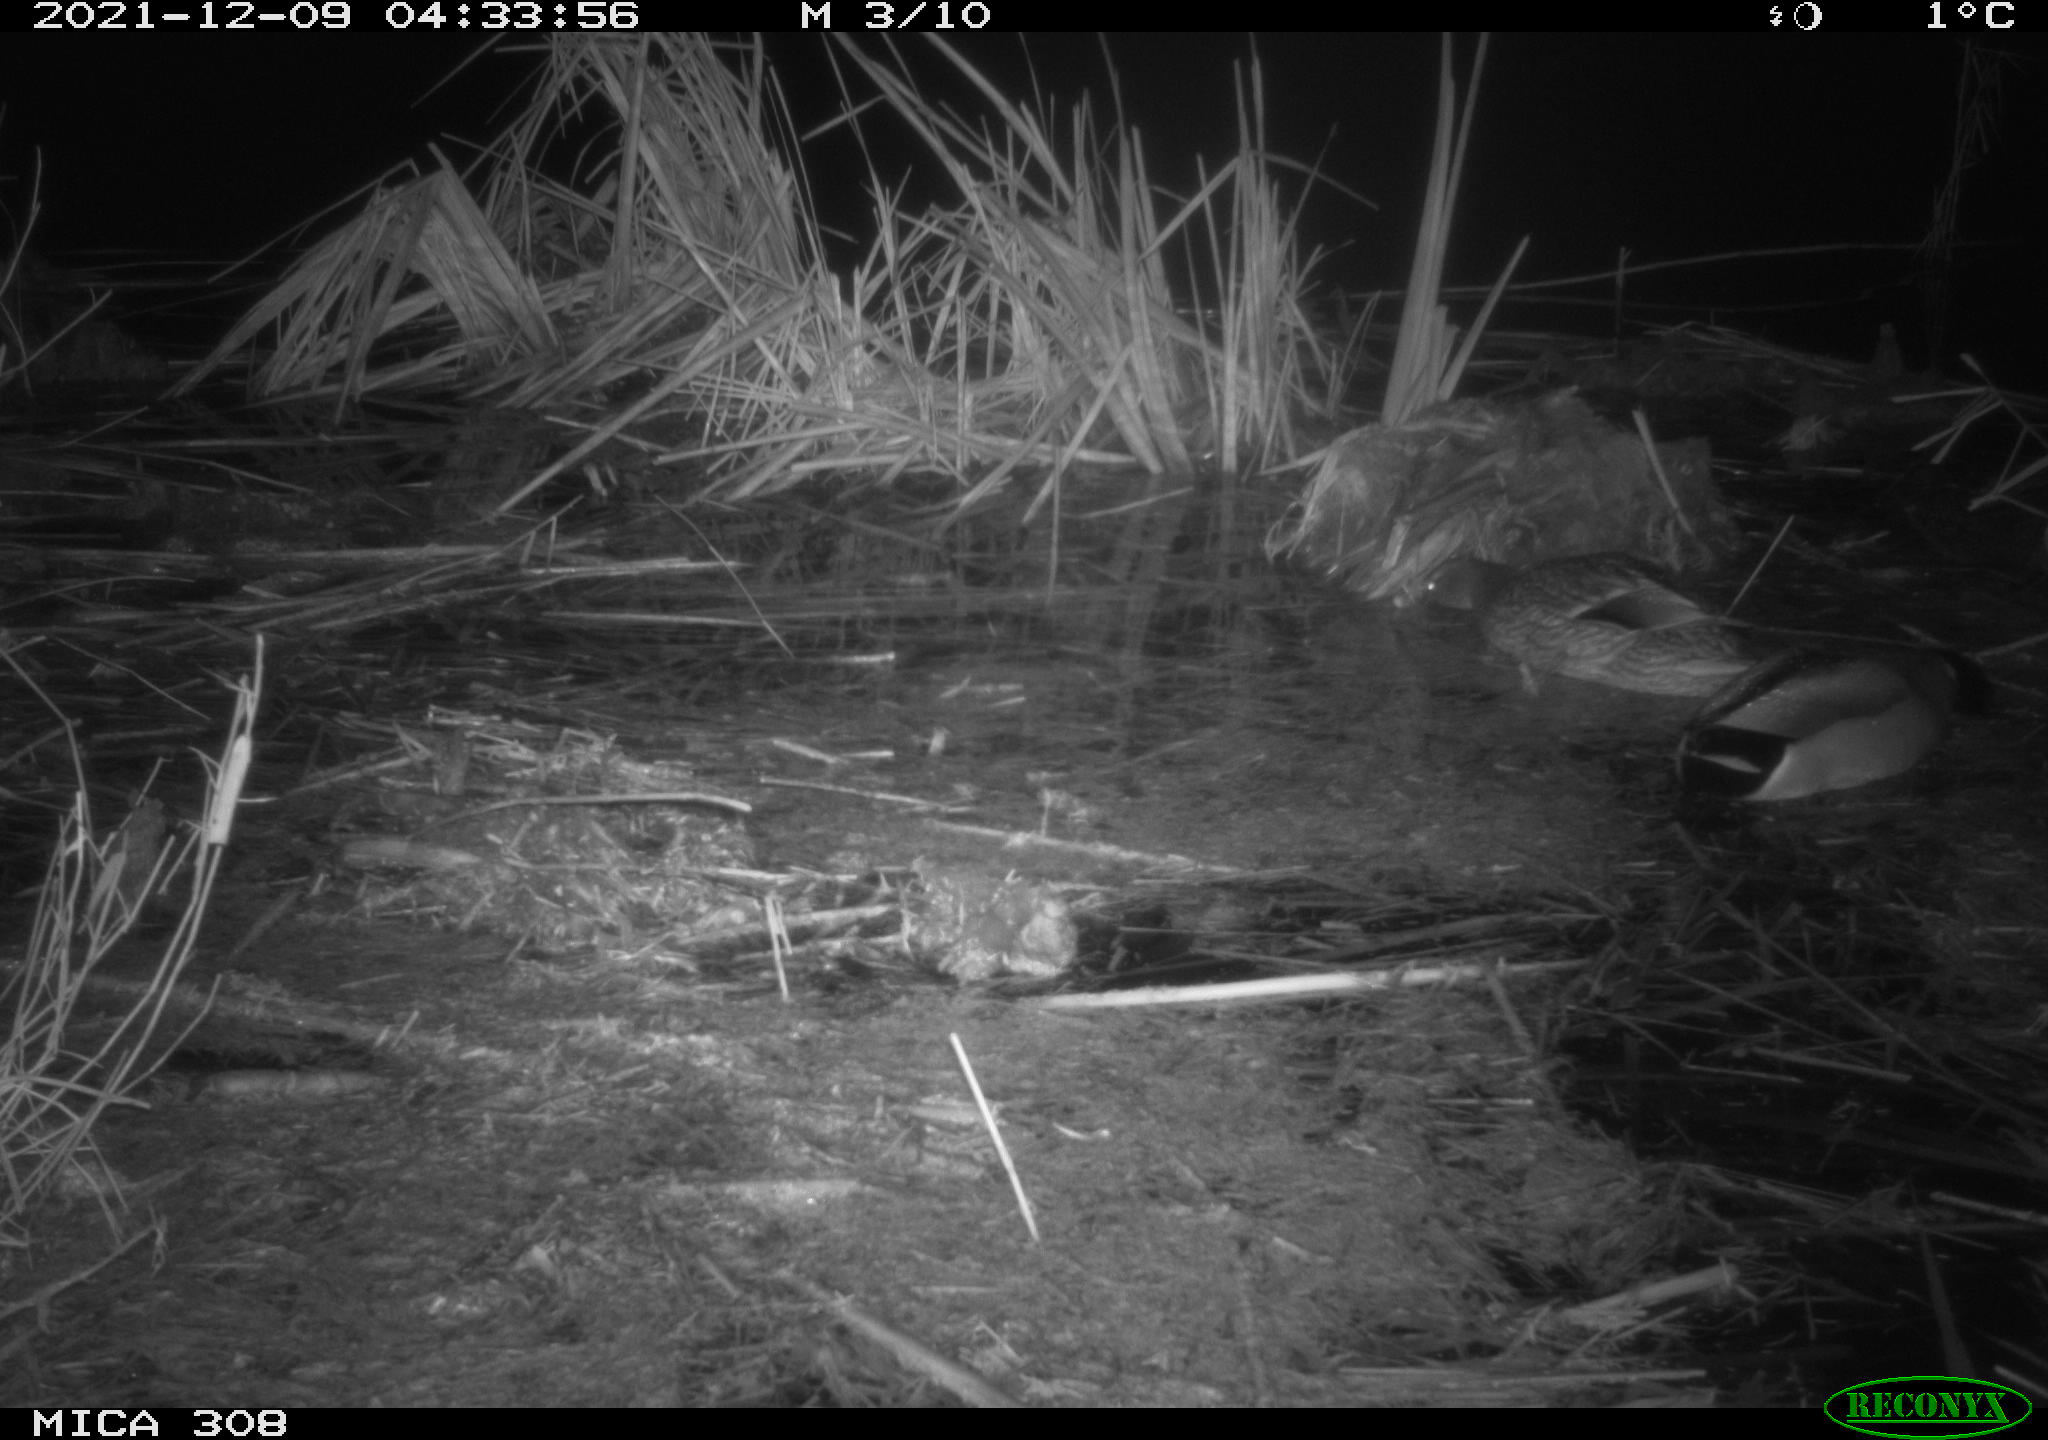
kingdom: Animalia
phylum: Chordata
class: Aves
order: Anseriformes
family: Anatidae
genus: Anas
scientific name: Anas platyrhynchos
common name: Mallard
